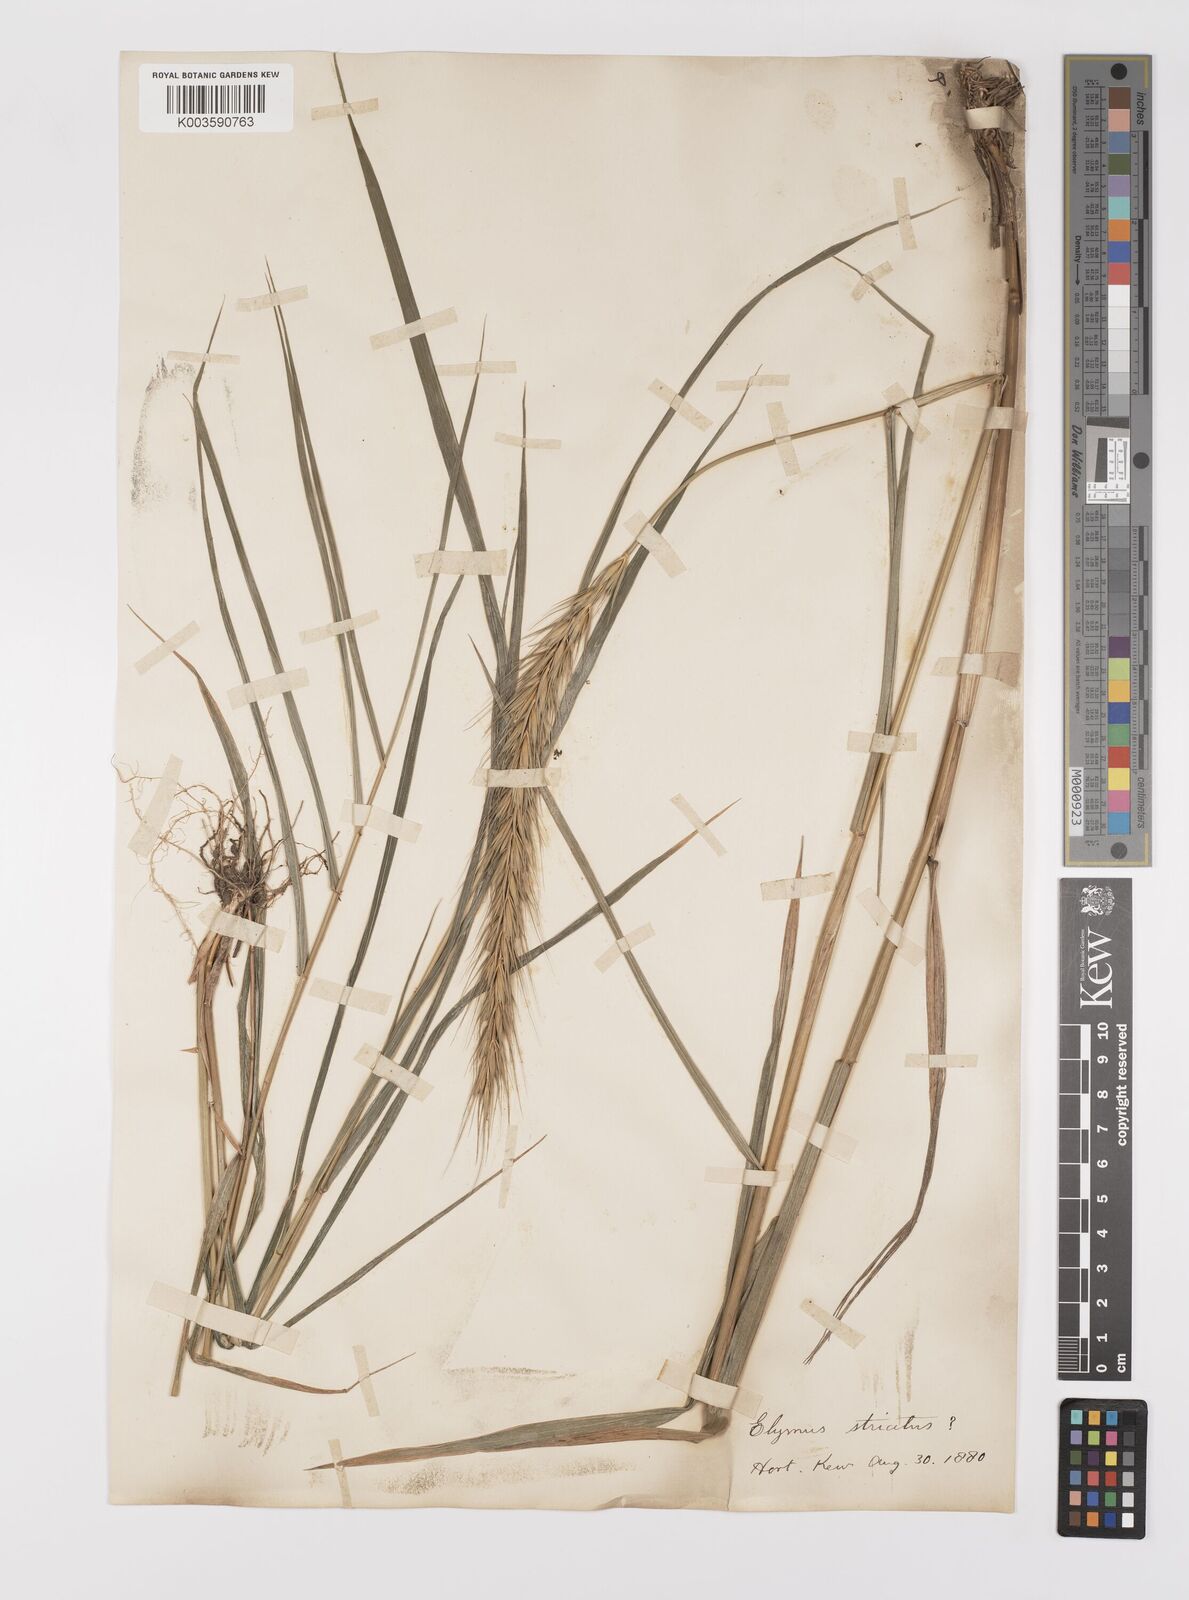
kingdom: Plantae
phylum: Tracheophyta
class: Liliopsida
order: Poales
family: Poaceae
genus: Elymus
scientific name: Elymus virginicus
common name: Common eastern wildrye
